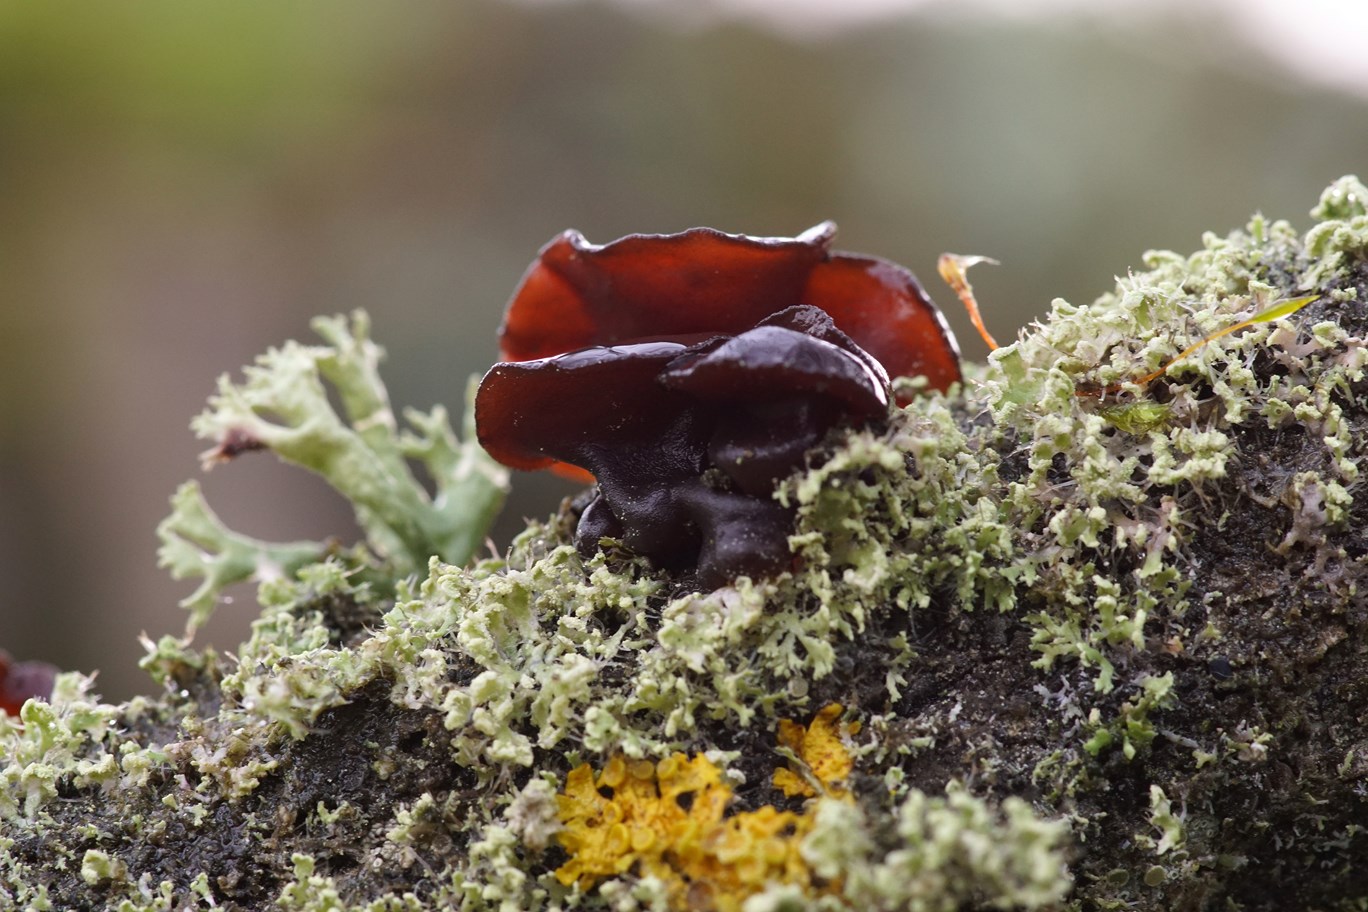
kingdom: Fungi
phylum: Basidiomycota
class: Agaricomycetes
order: Auriculariales
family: Auriculariaceae
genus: Exidia
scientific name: Exidia recisa
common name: pile-bævretop
